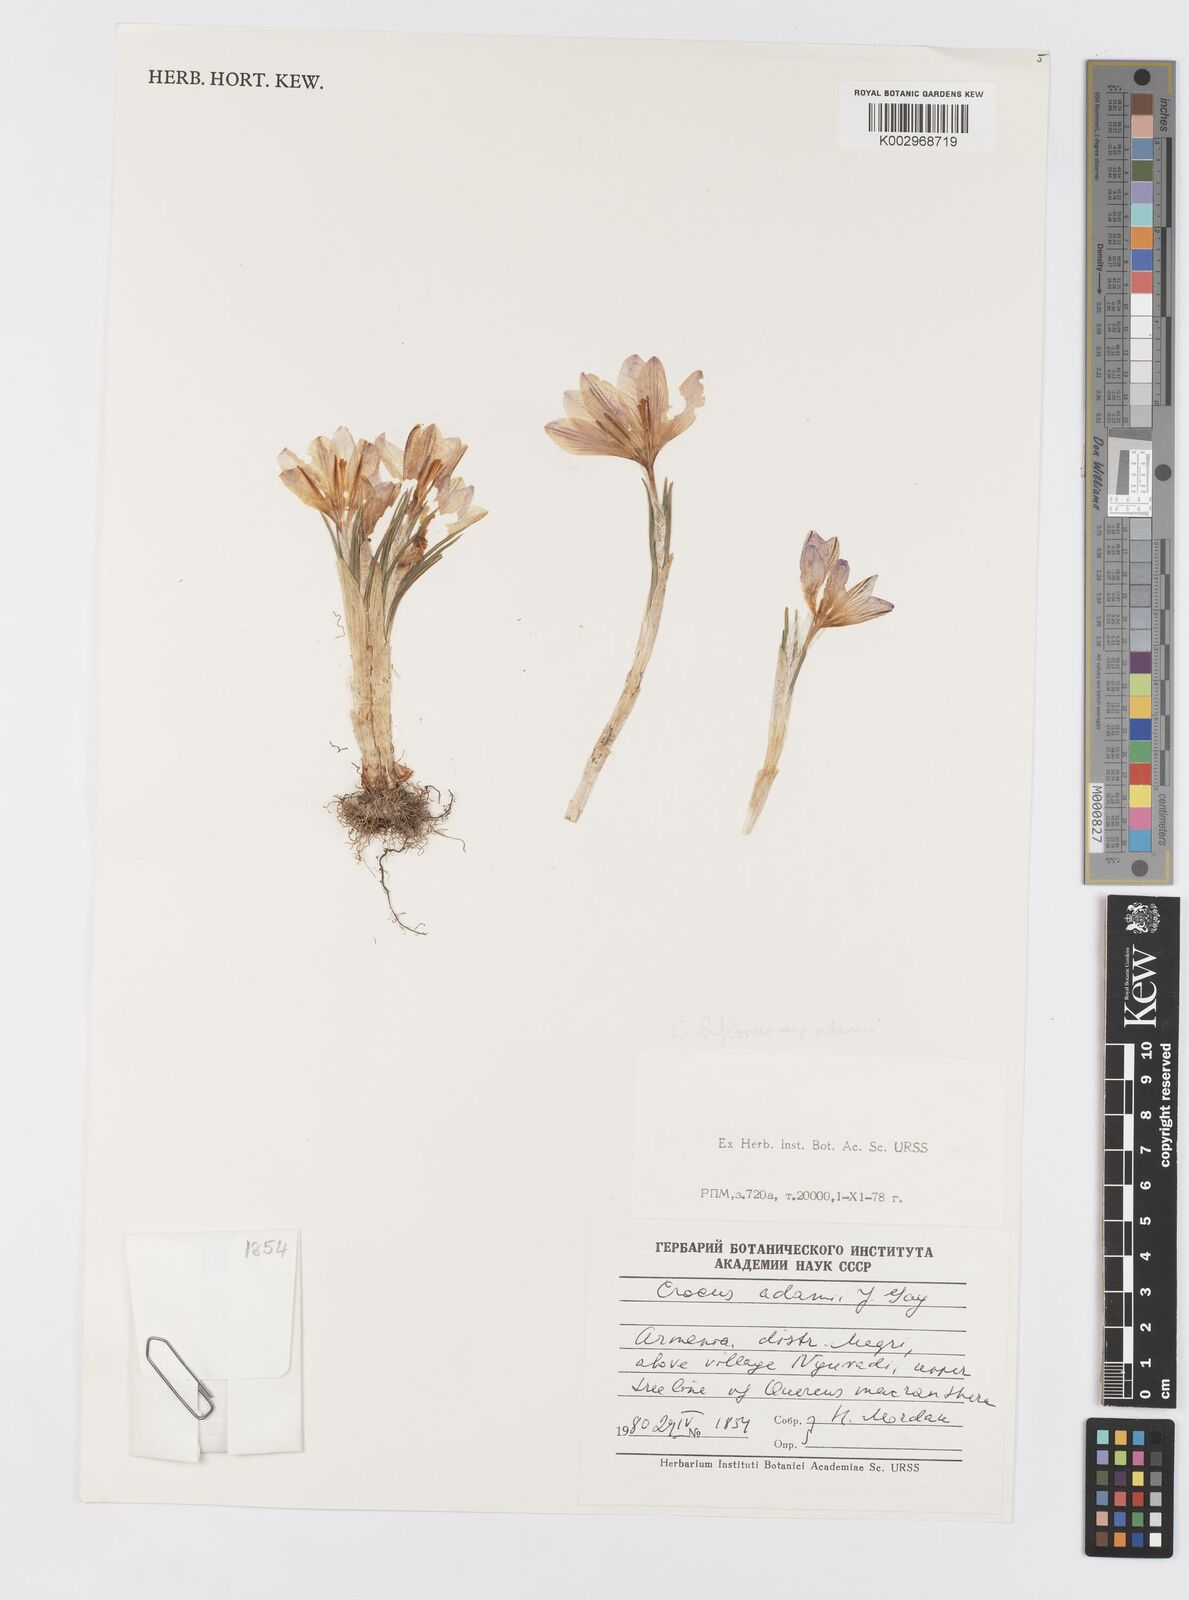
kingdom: Plantae
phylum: Tracheophyta
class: Liliopsida
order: Asparagales
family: Iridaceae
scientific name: Iridaceae
